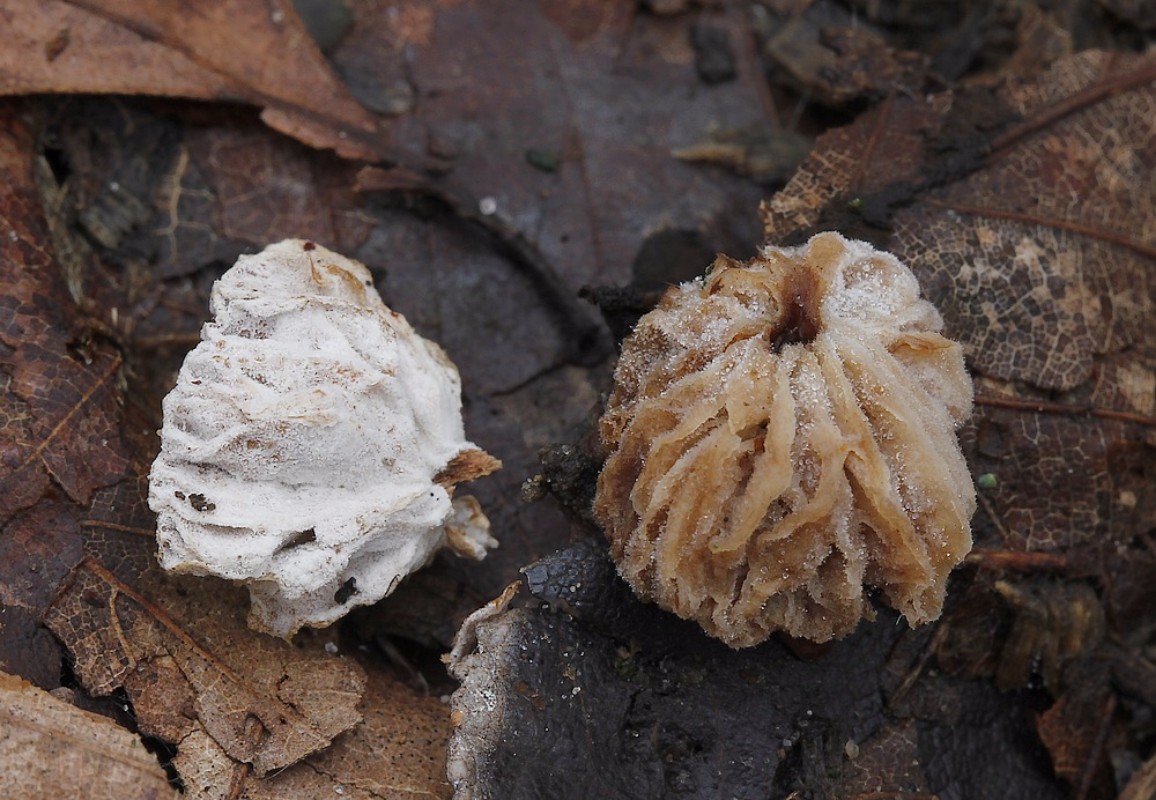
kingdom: Fungi
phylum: Ascomycota
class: Sordariomycetes
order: Hypocreales
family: Hypocreaceae
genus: Hypomyces
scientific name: Hypomyces tubariicola
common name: fnughat-snylteskorpe
